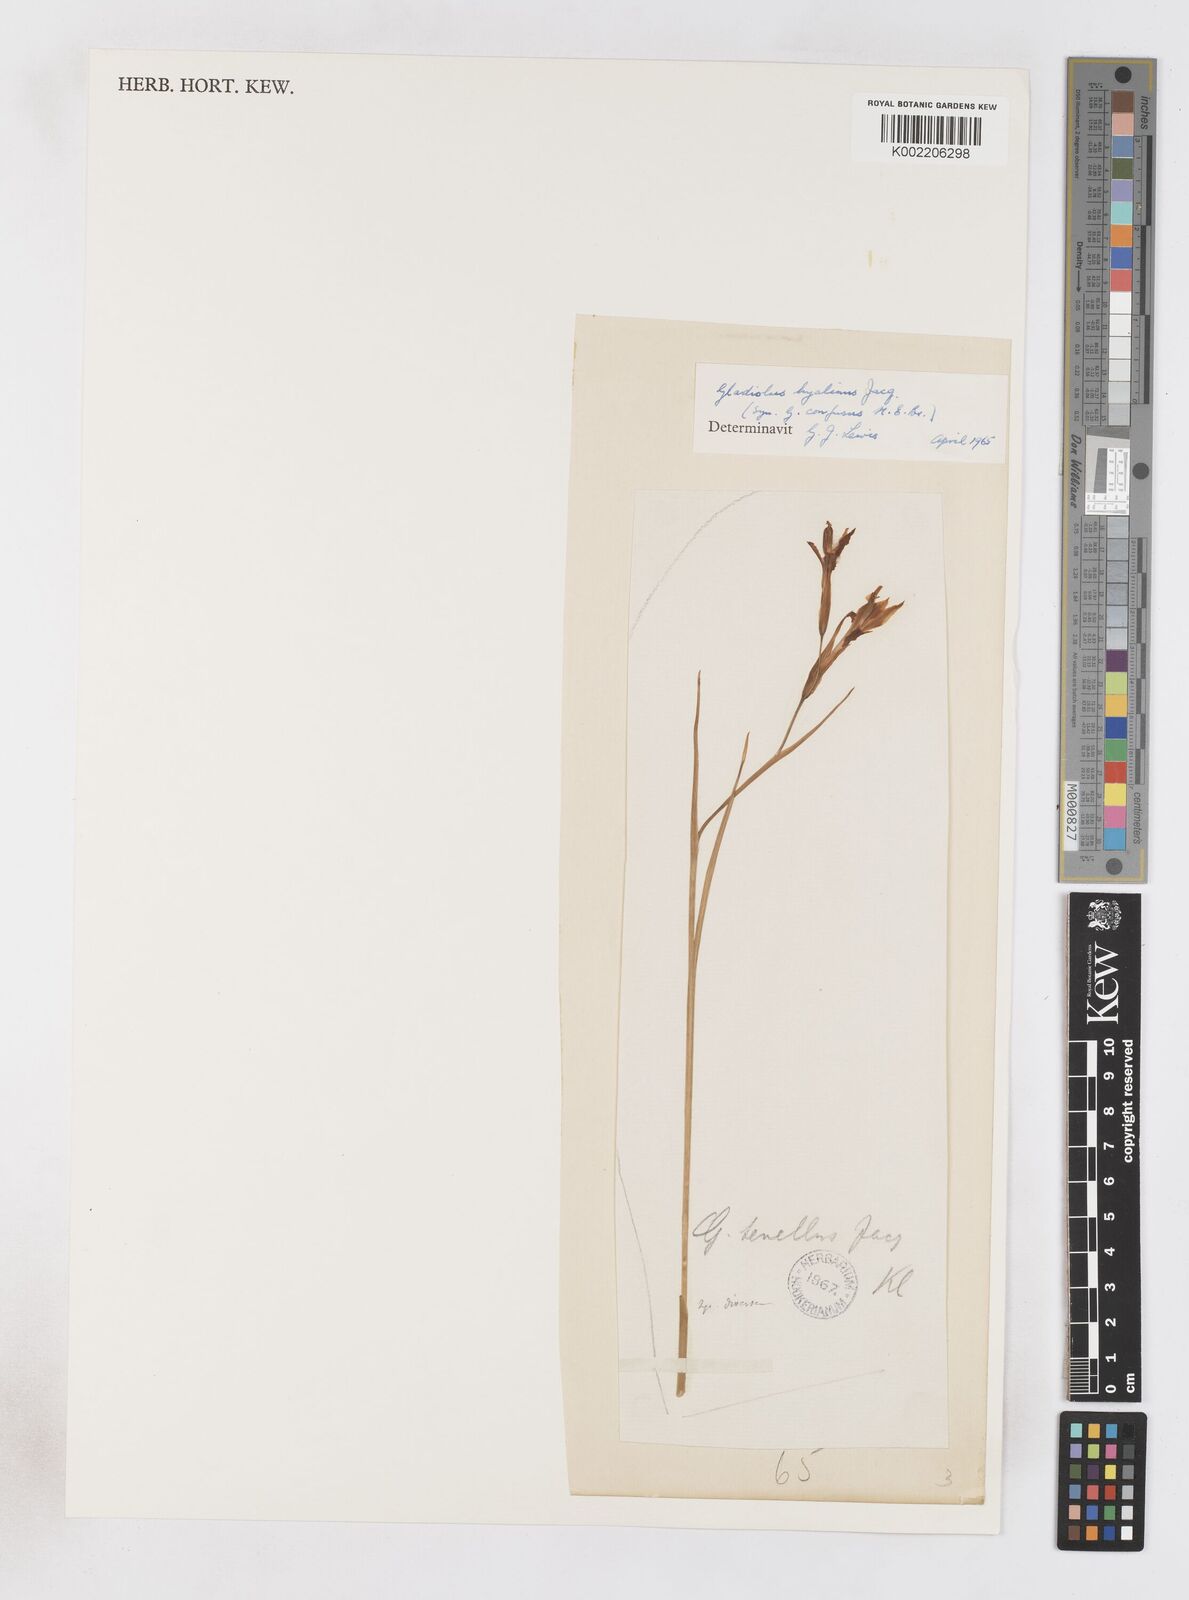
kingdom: Plantae
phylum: Tracheophyta
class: Liliopsida
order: Asparagales
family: Iridaceae
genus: Gladiolus
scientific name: Gladiolus maculatus
